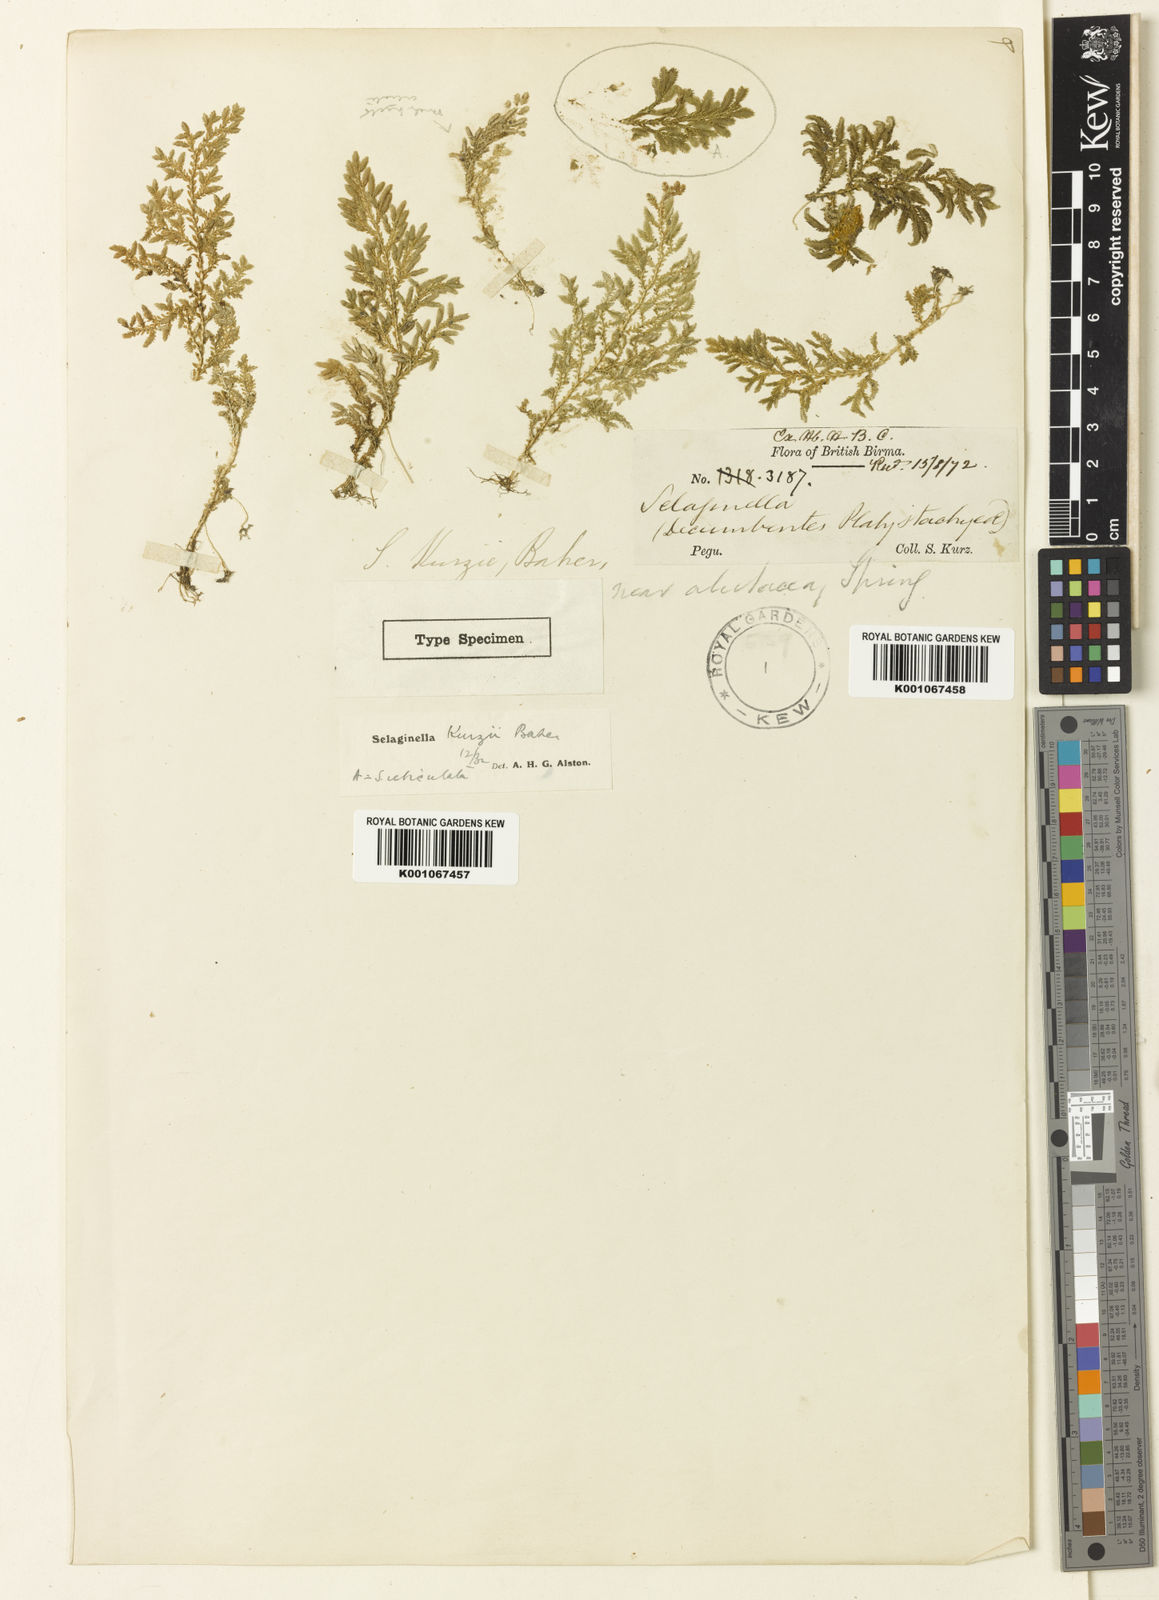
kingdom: Plantae
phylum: Tracheophyta
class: Lycopodiopsida
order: Selaginellales
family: Selaginellaceae
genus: Selaginella
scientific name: Selaginella kurzii
